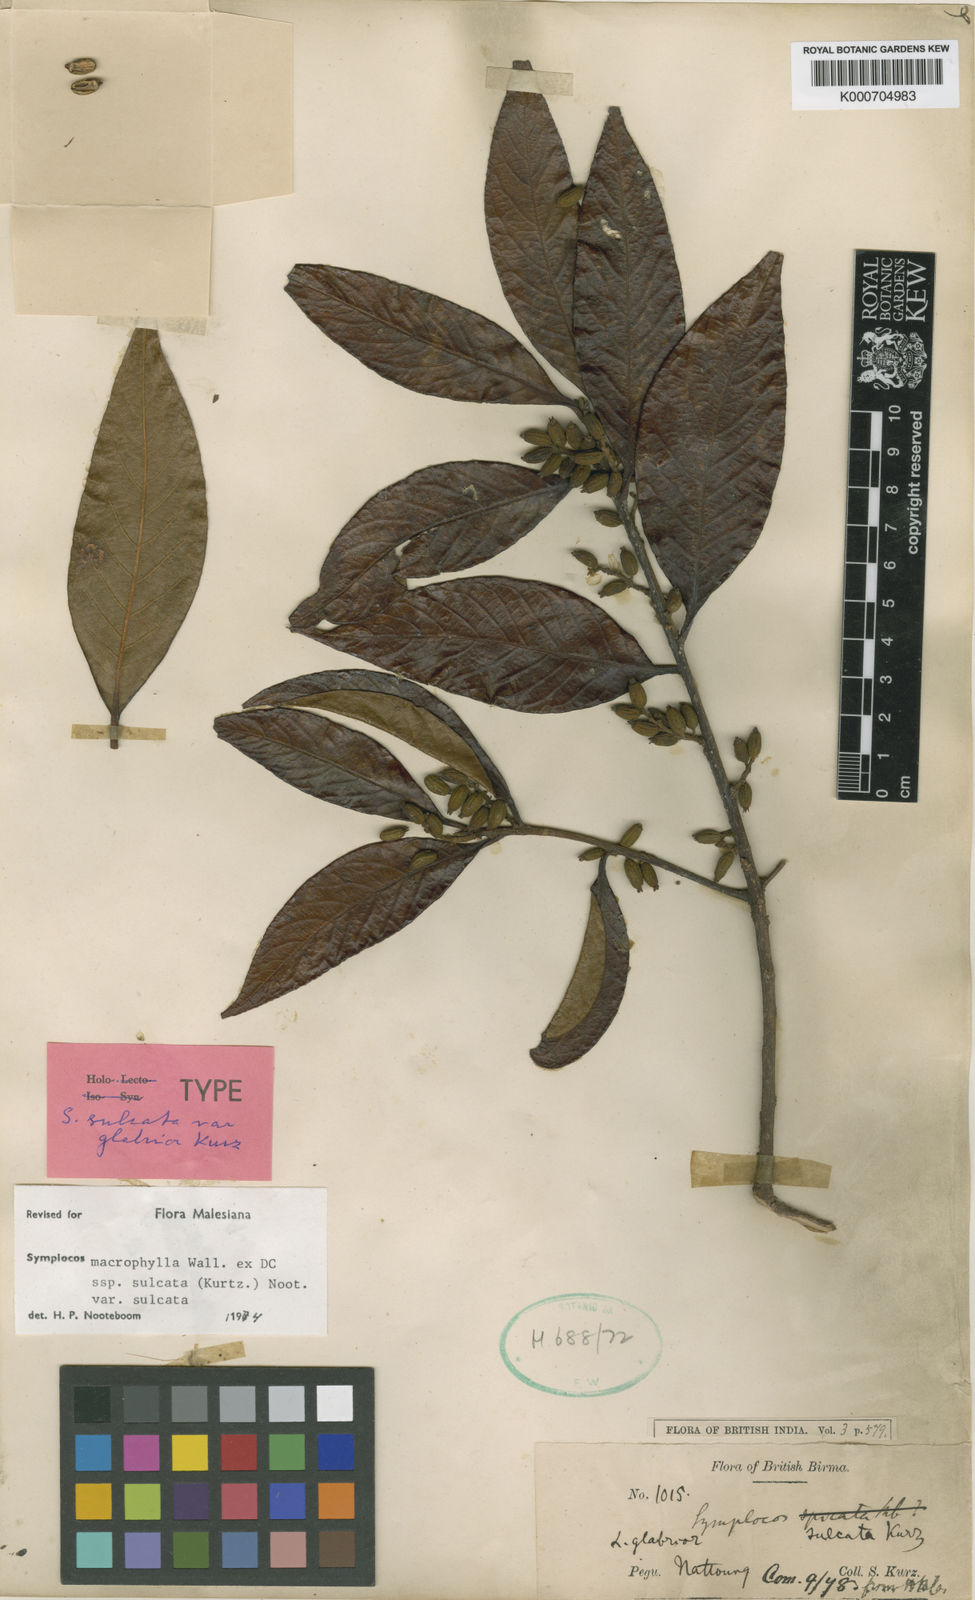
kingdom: Plantae
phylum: Tracheophyta
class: Magnoliopsida
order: Ericales
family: Symplocaceae
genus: Symplocos
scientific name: Symplocos sulcata
